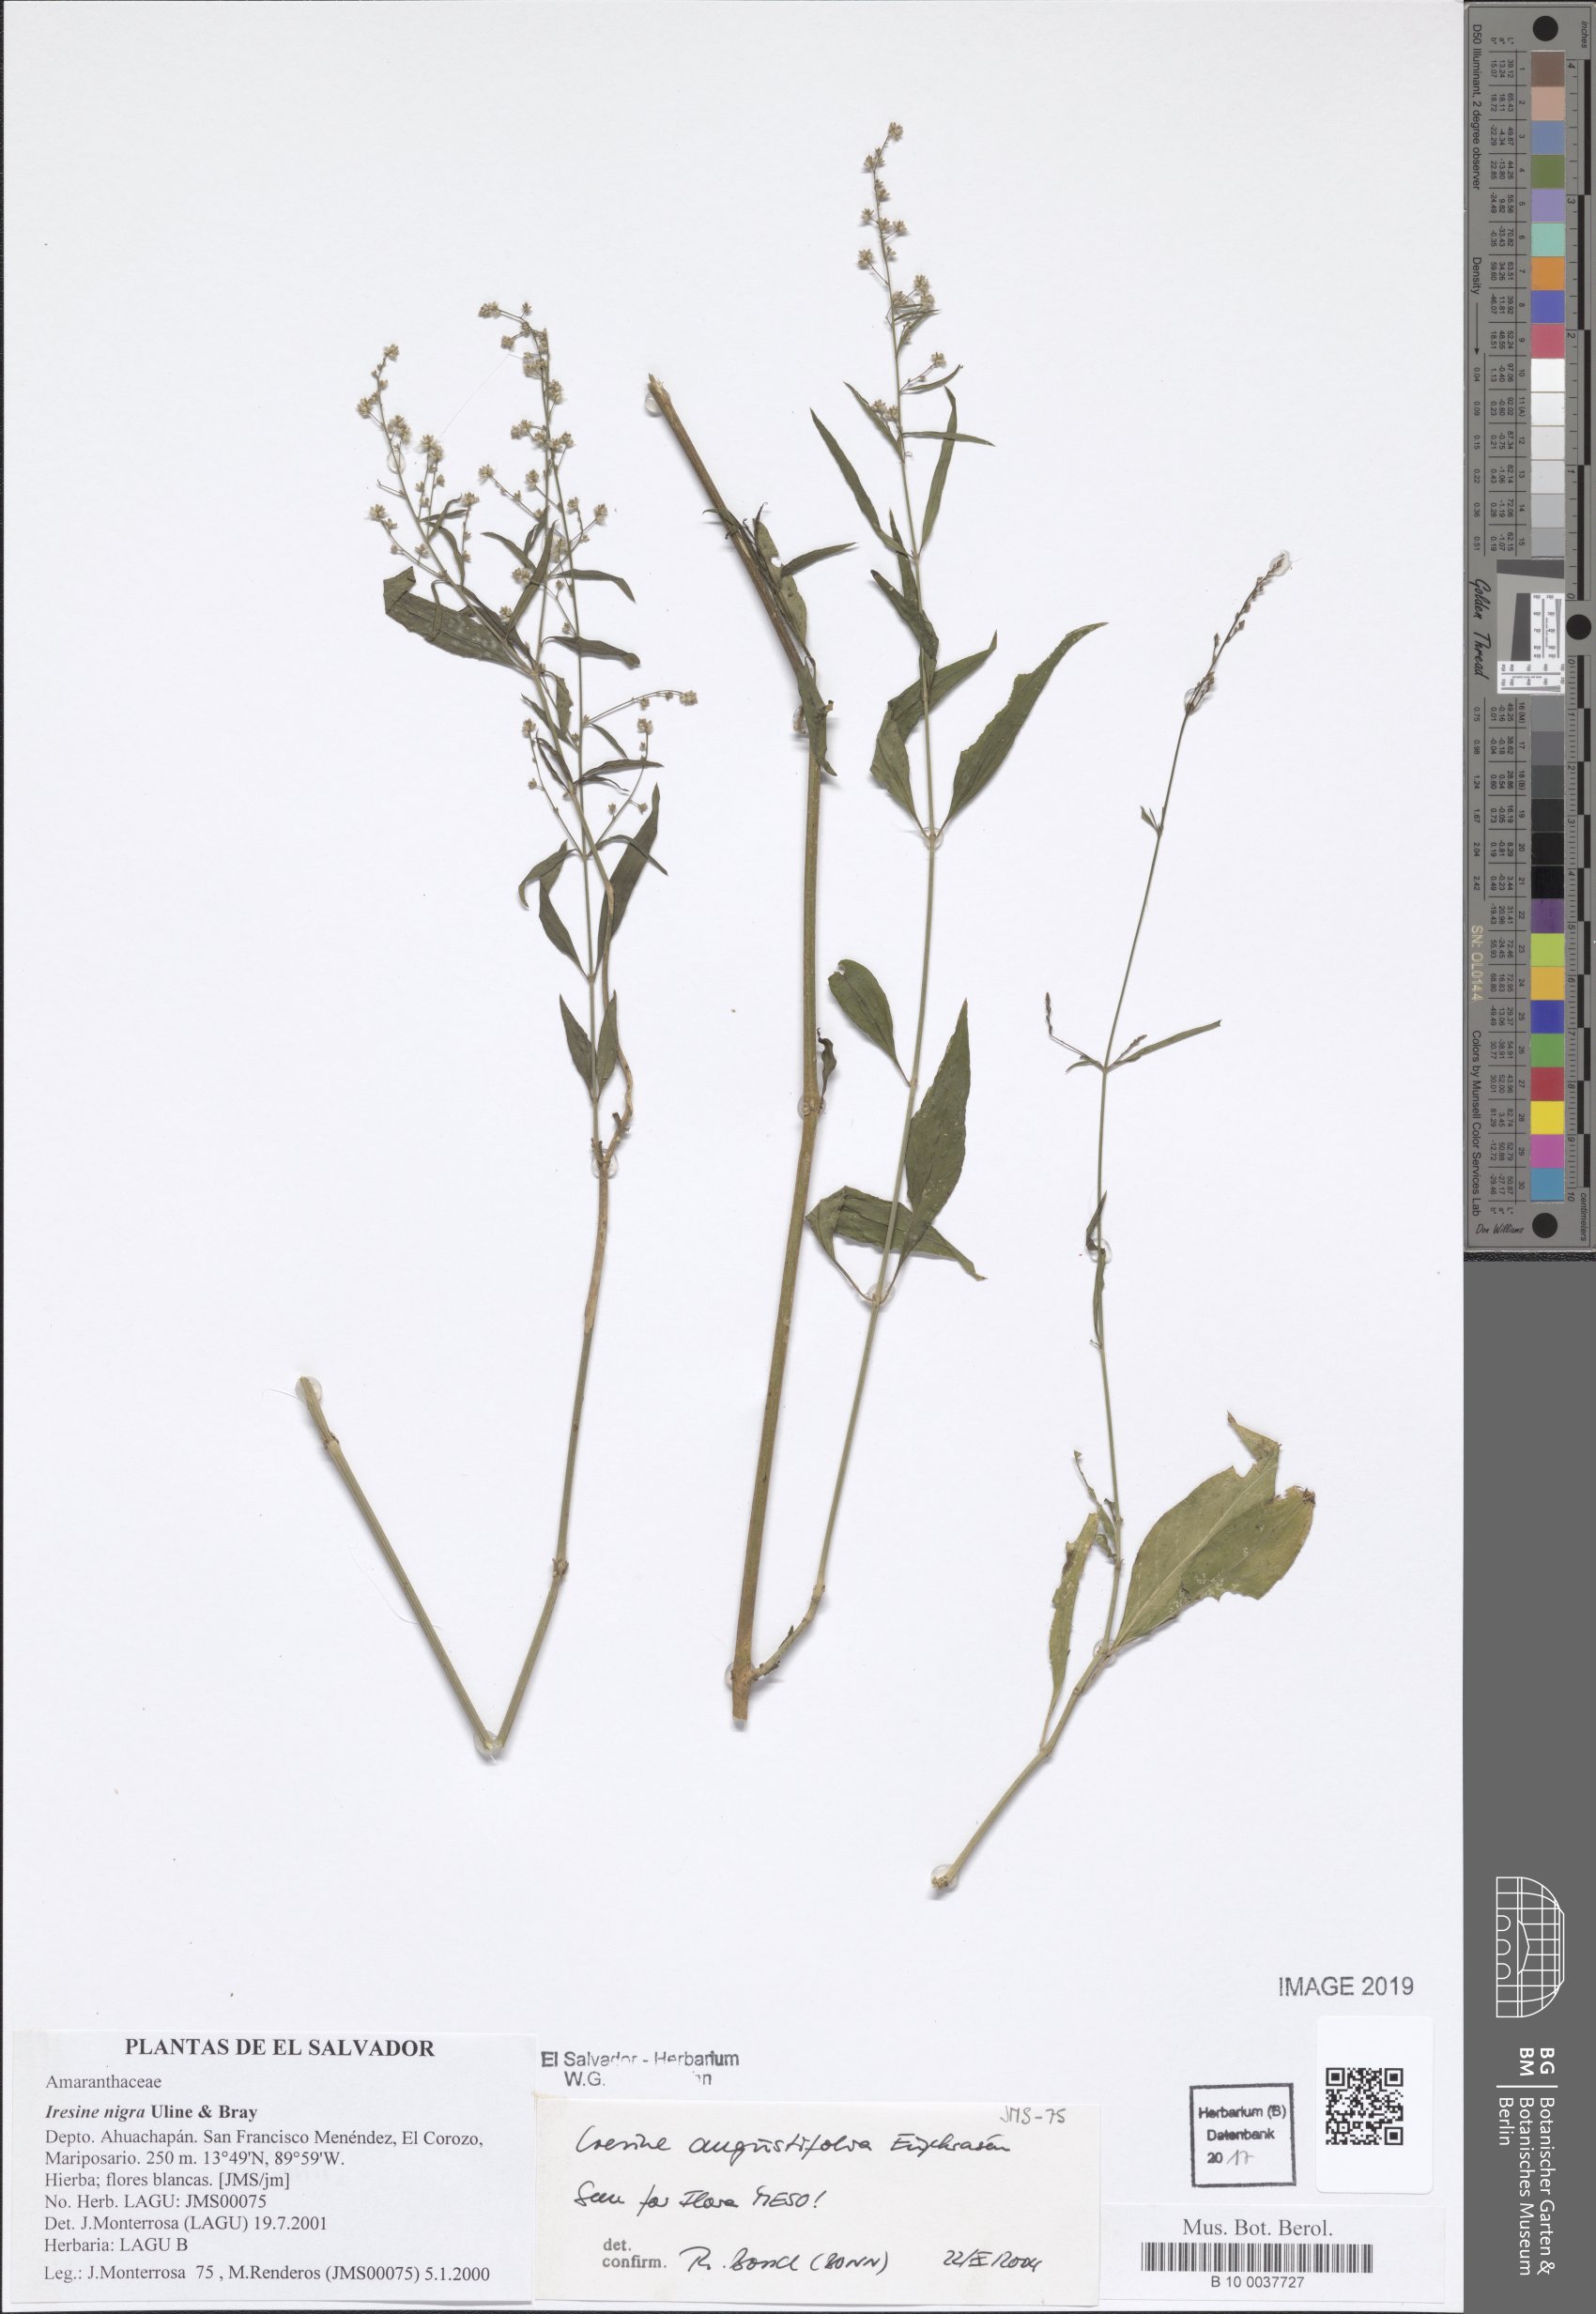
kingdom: Plantae
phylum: Tracheophyta
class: Magnoliopsida
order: Caryophyllales
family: Amaranthaceae
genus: Iresine
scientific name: Iresine angustifolia
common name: White snowplant
